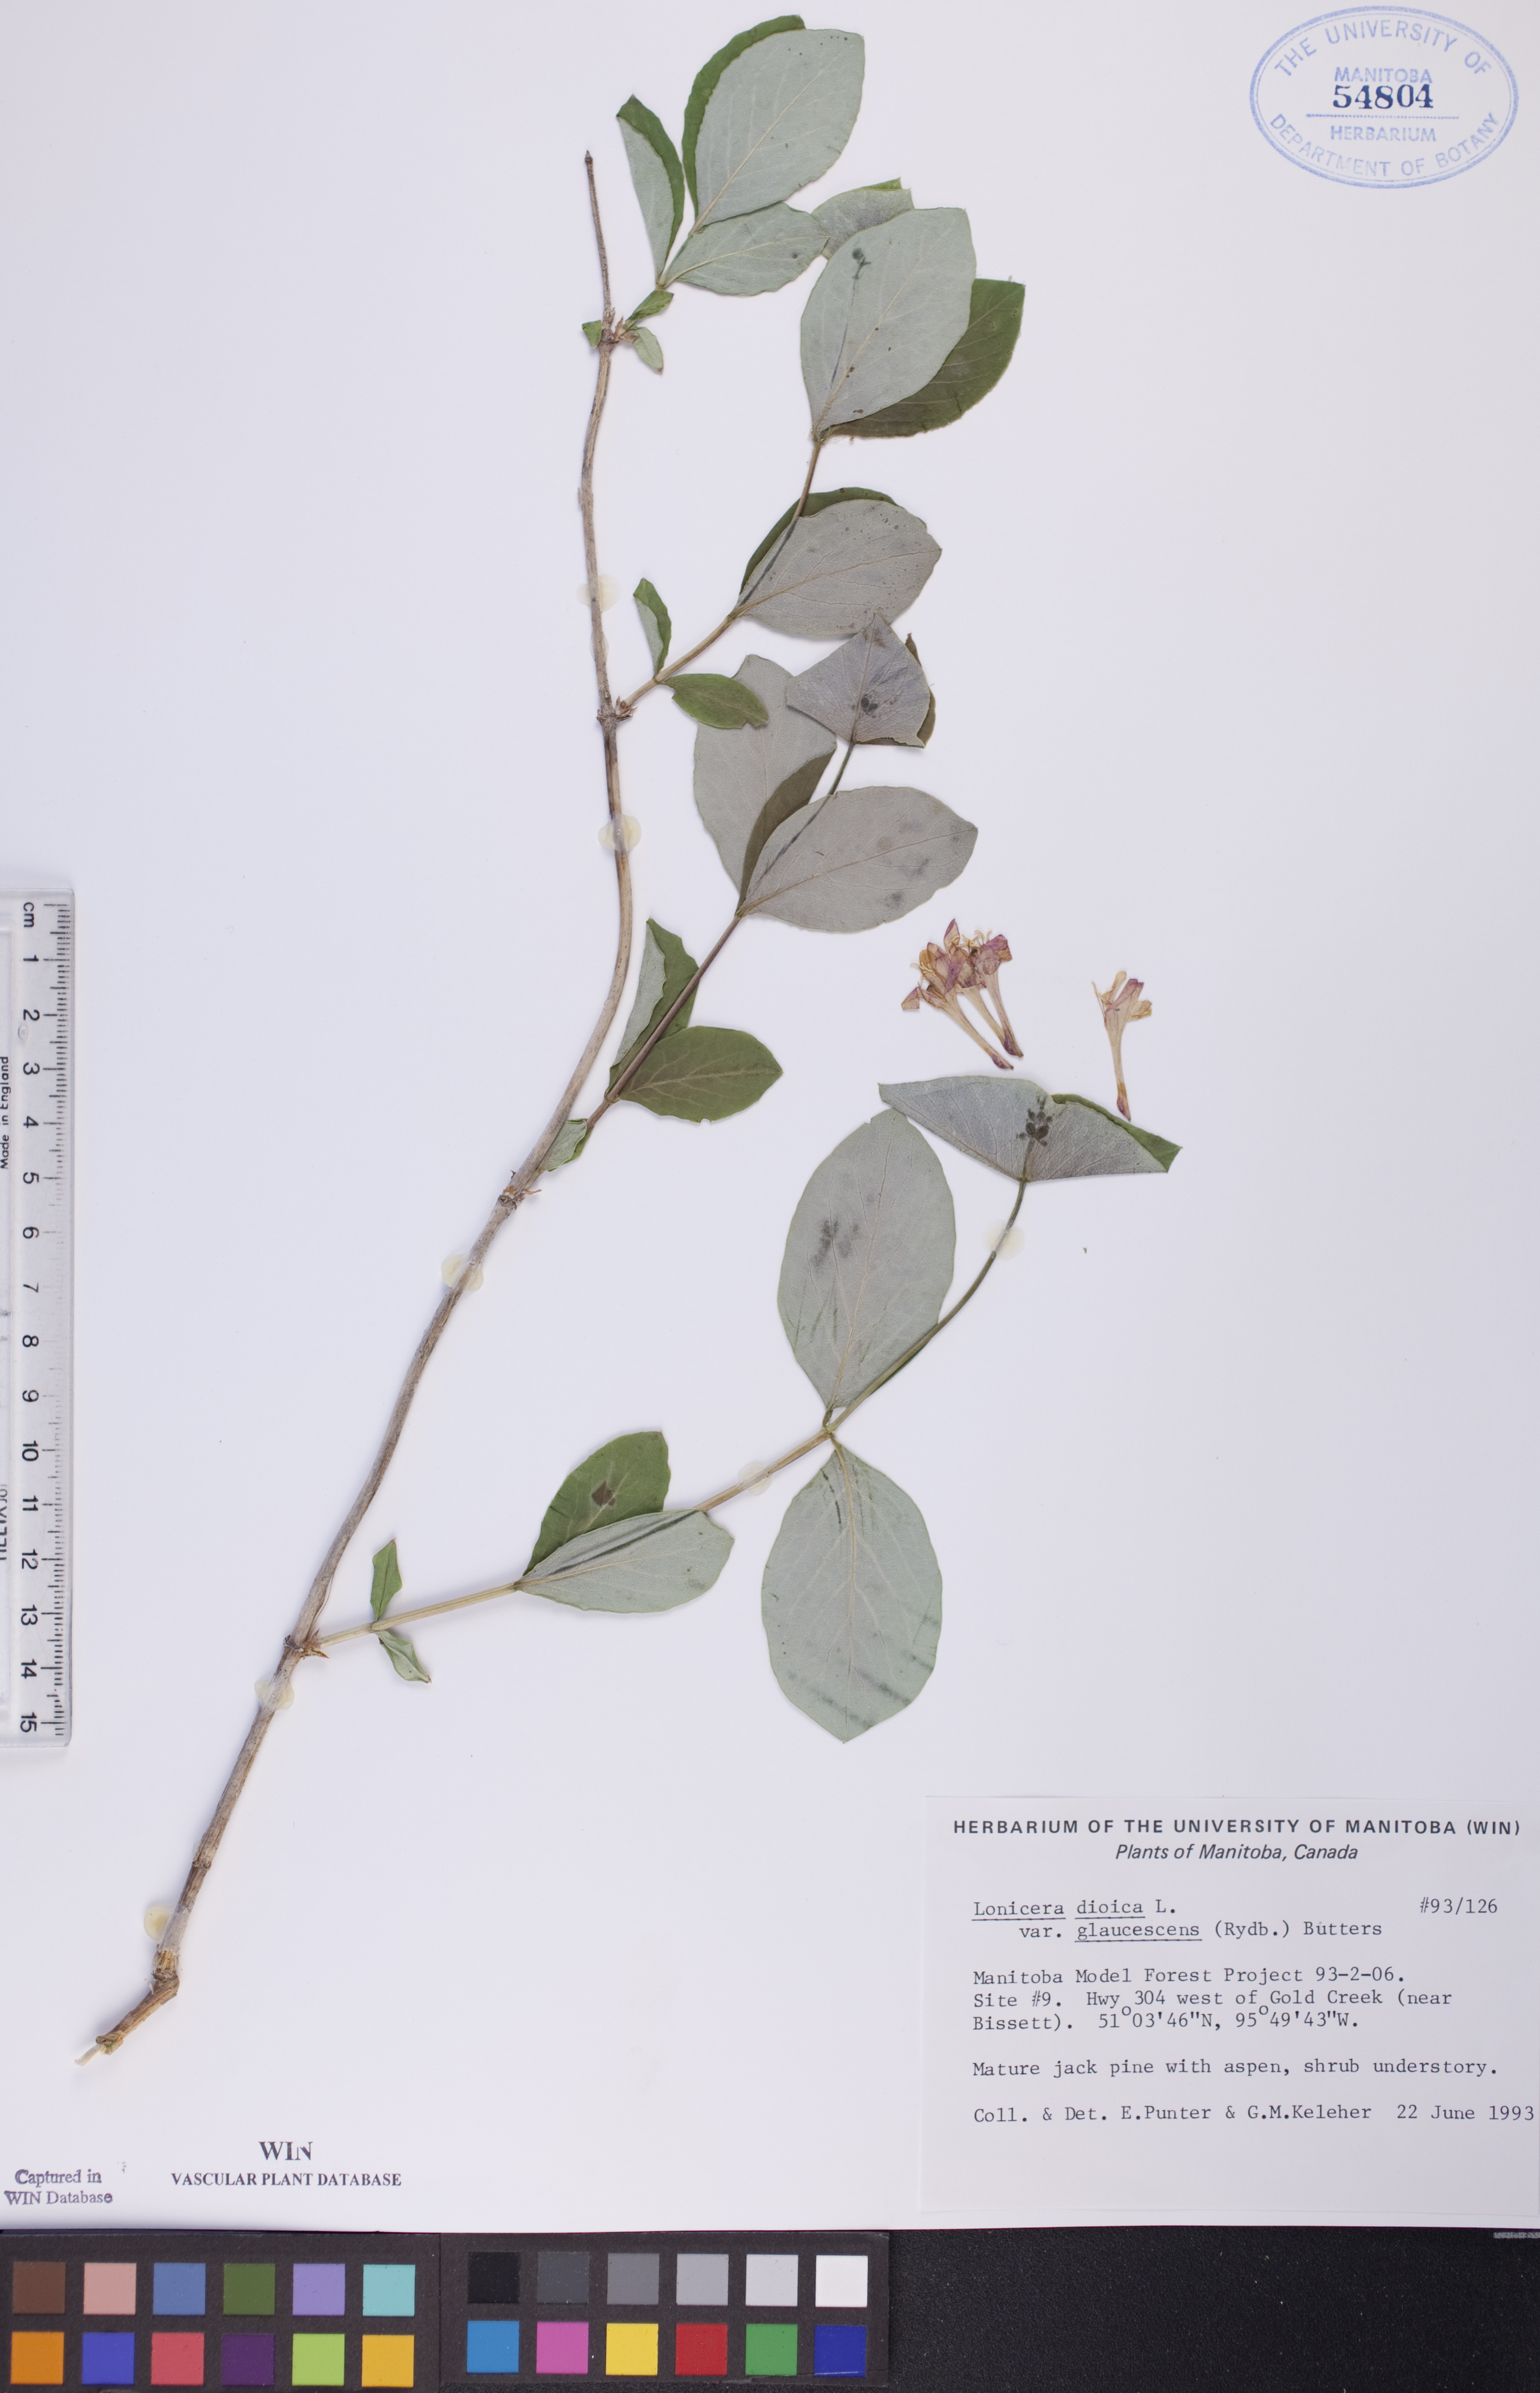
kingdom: Plantae
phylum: Tracheophyta
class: Magnoliopsida
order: Dipsacales
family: Caprifoliaceae
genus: Lonicera
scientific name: Lonicera dioica
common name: Limber honeysuckle
